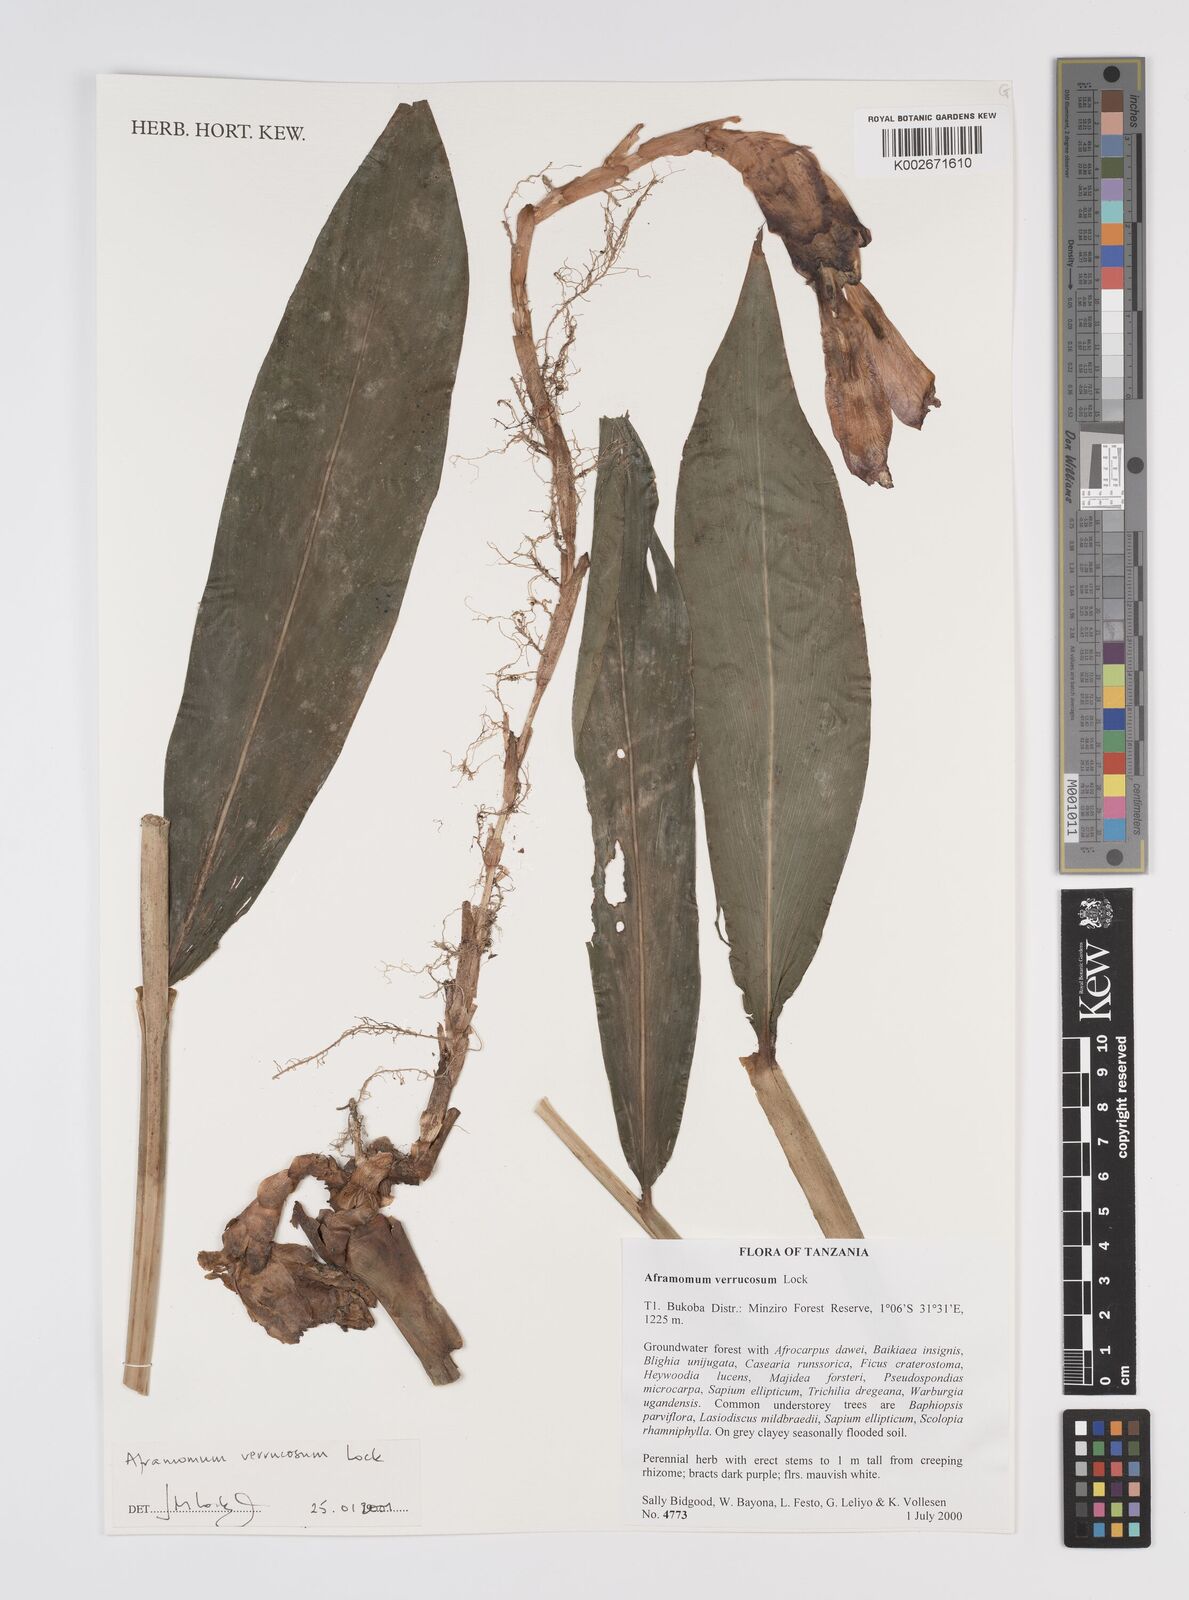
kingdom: Plantae
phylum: Tracheophyta
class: Liliopsida
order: Zingiberales
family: Zingiberaceae
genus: Aframomum
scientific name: Aframomum verrucosum
